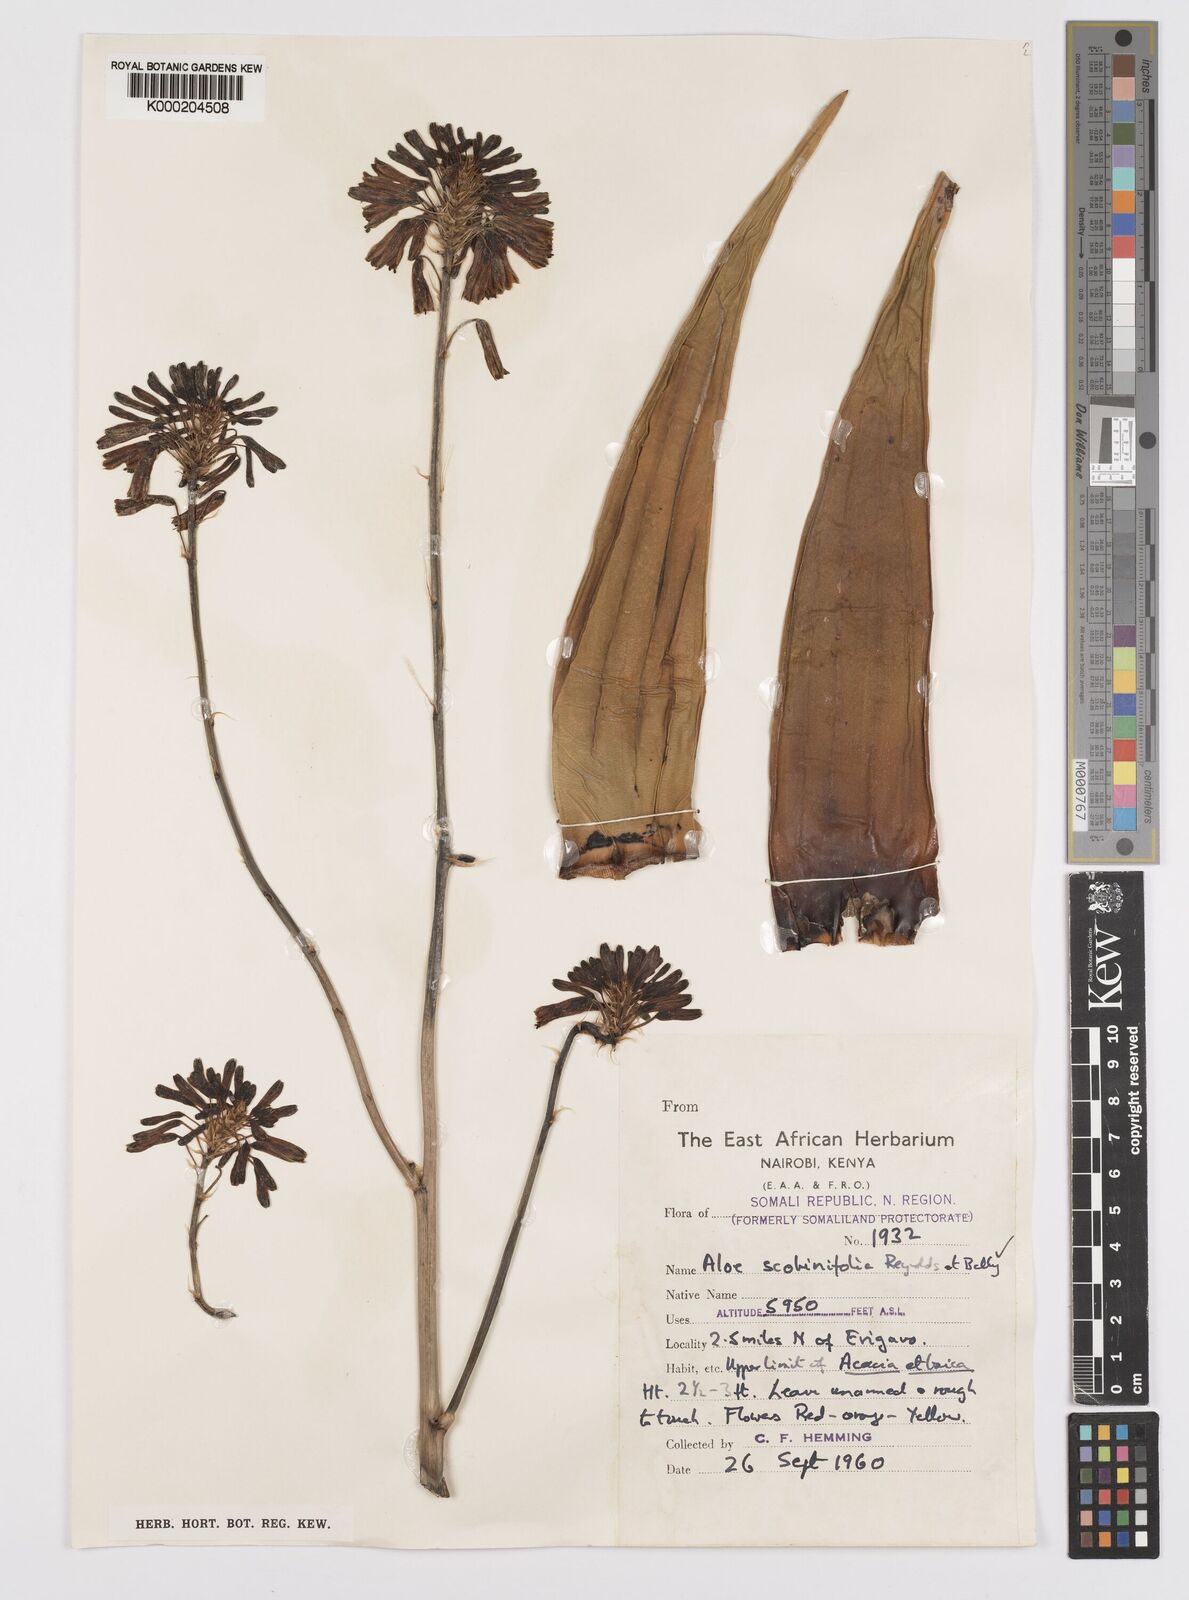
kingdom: Plantae
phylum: Tracheophyta
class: Liliopsida
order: Asparagales
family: Asphodelaceae
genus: Aloe
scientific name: Aloe scobinifolia
